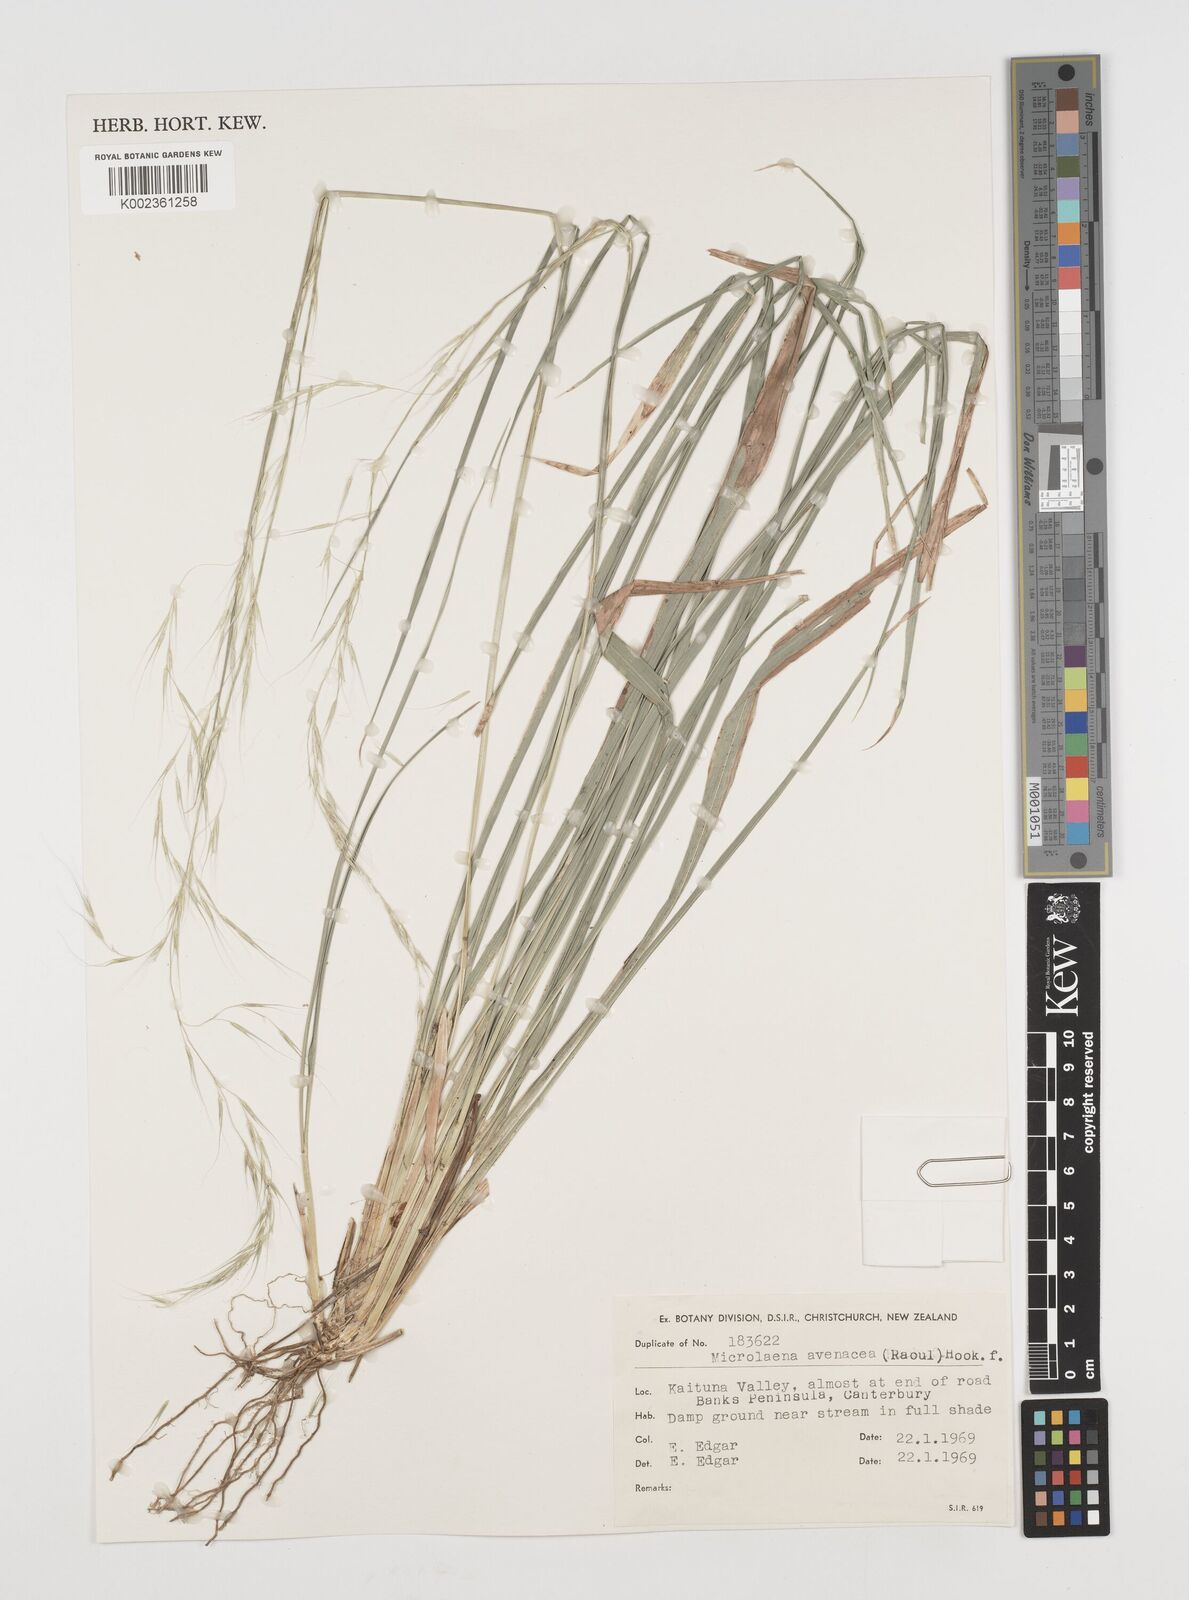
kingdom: Plantae
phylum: Tracheophyta
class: Liliopsida
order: Poales
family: Poaceae
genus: Ehrharta
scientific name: Ehrharta diplax
